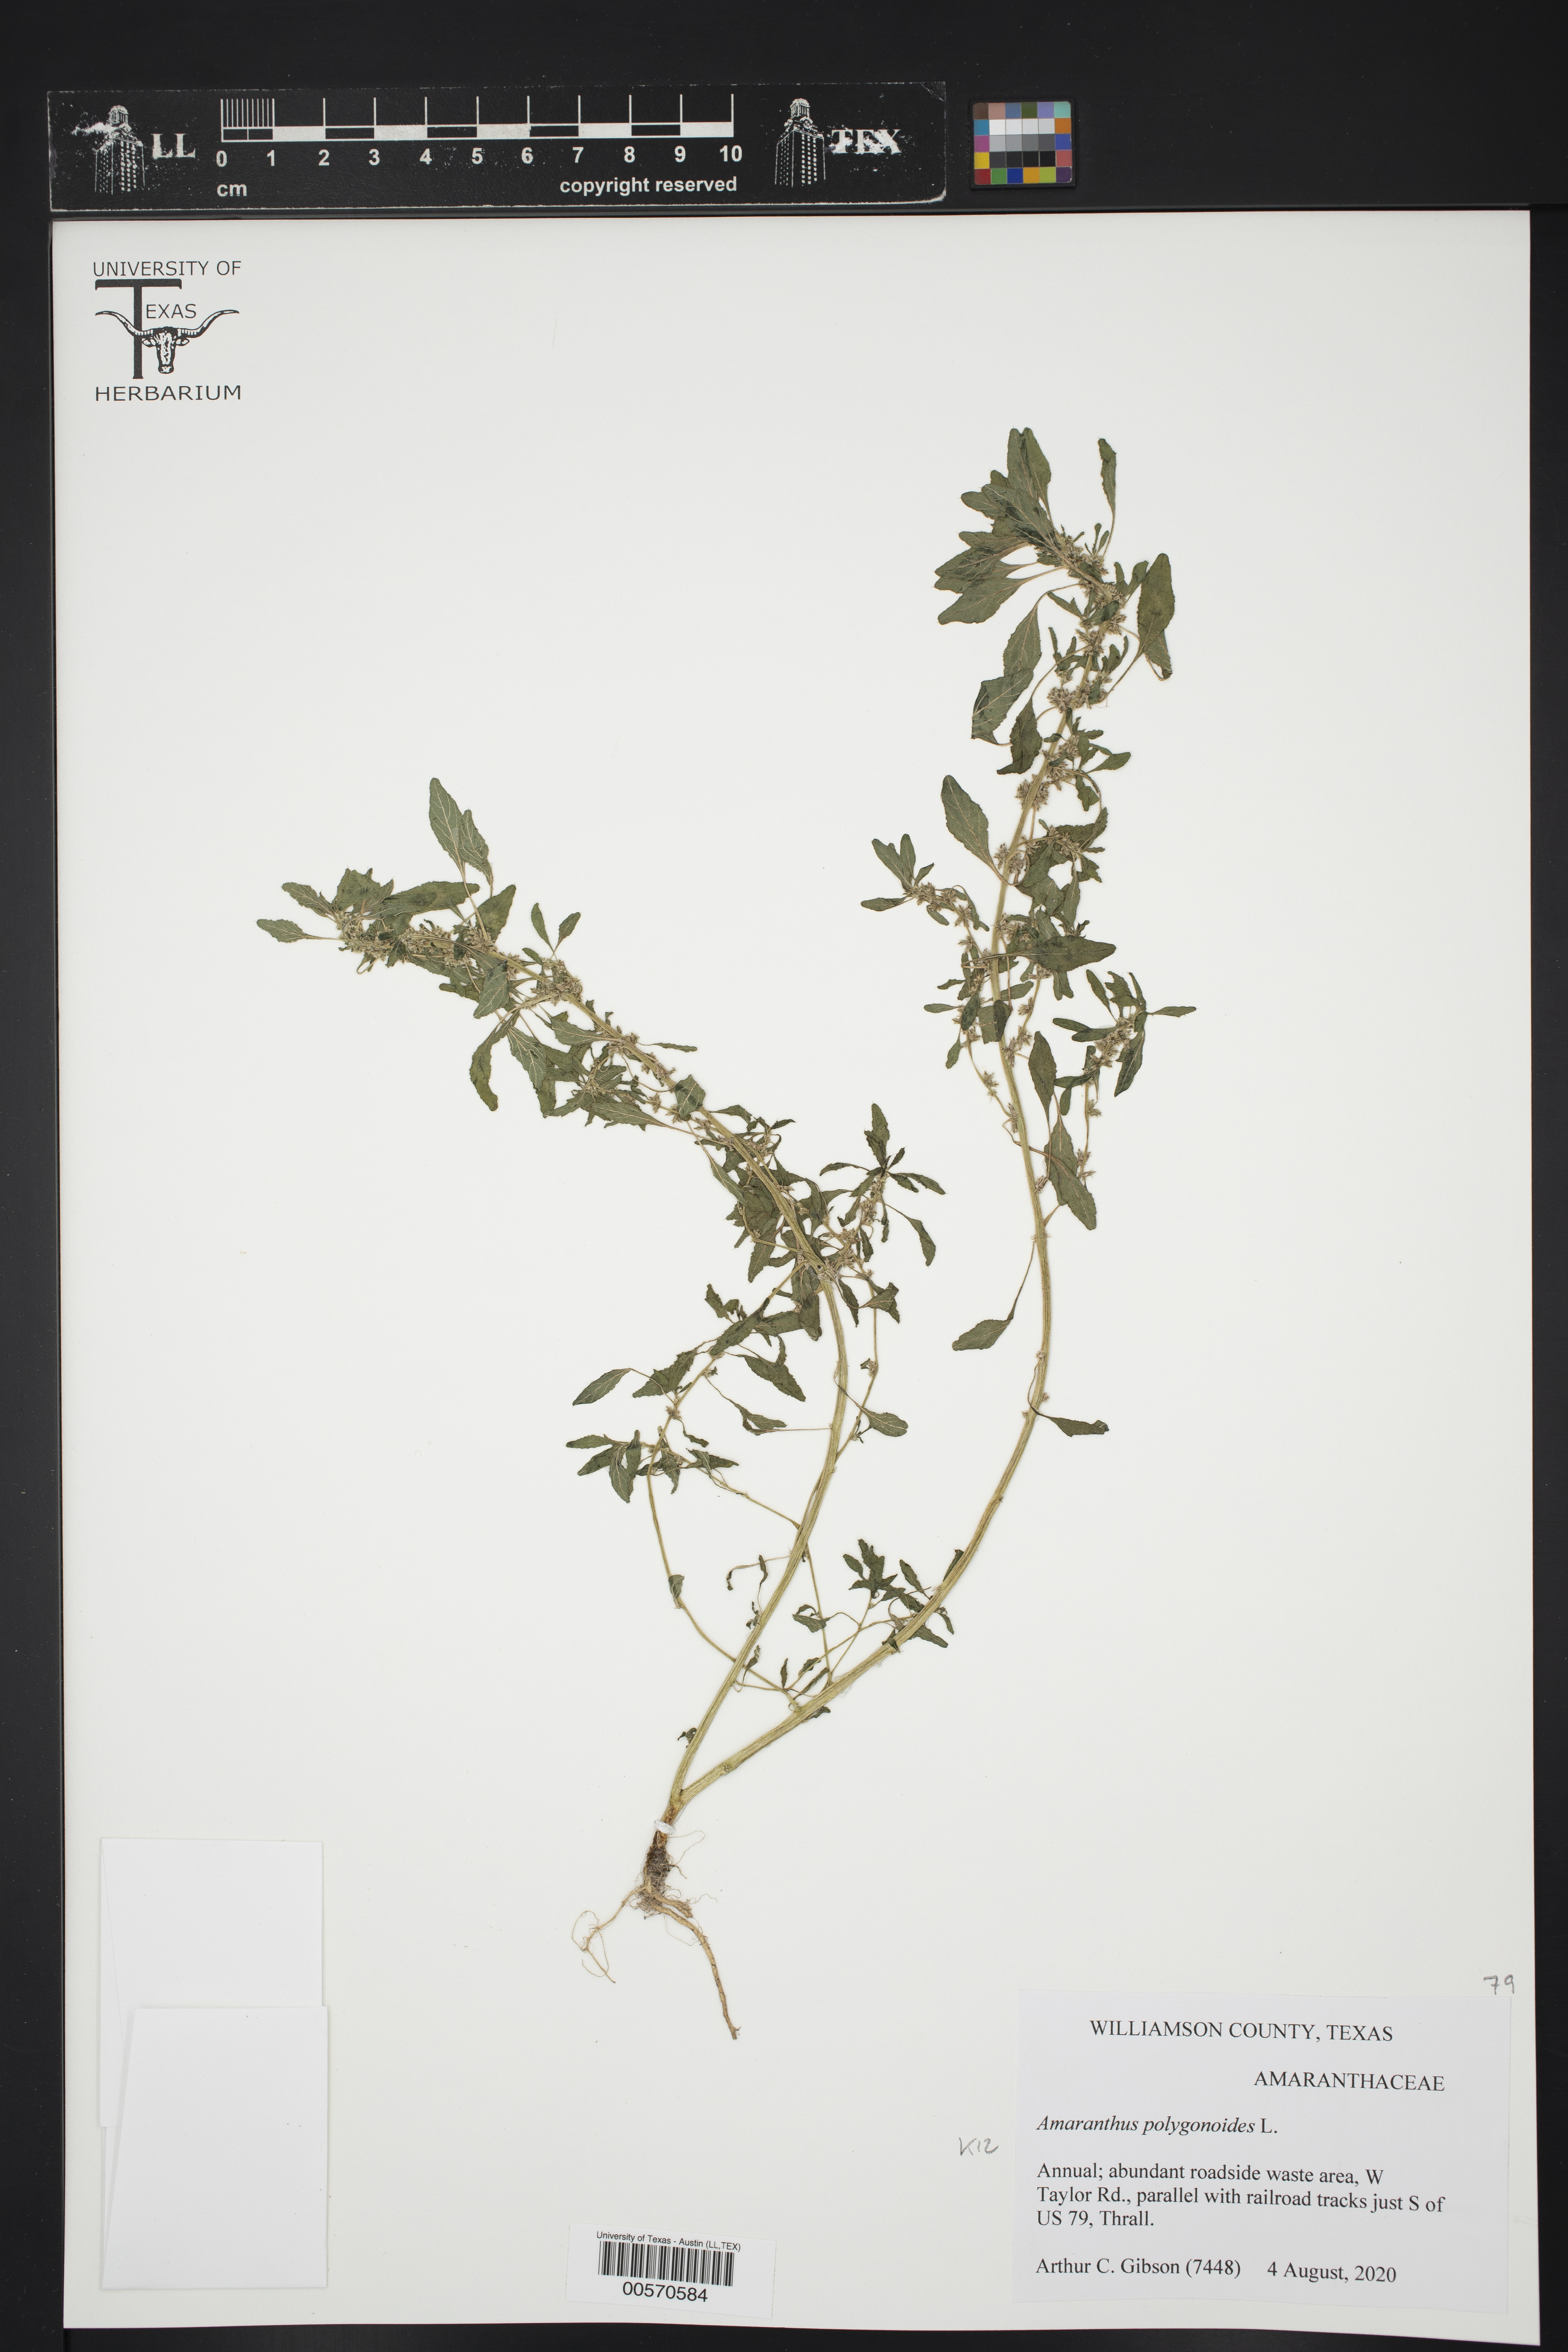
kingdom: Plantae
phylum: Tracheophyta
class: Magnoliopsida
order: Caryophyllales
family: Amaranthaceae
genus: Amaranthus
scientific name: Amaranthus polygonoides
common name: Tropical amaranth
